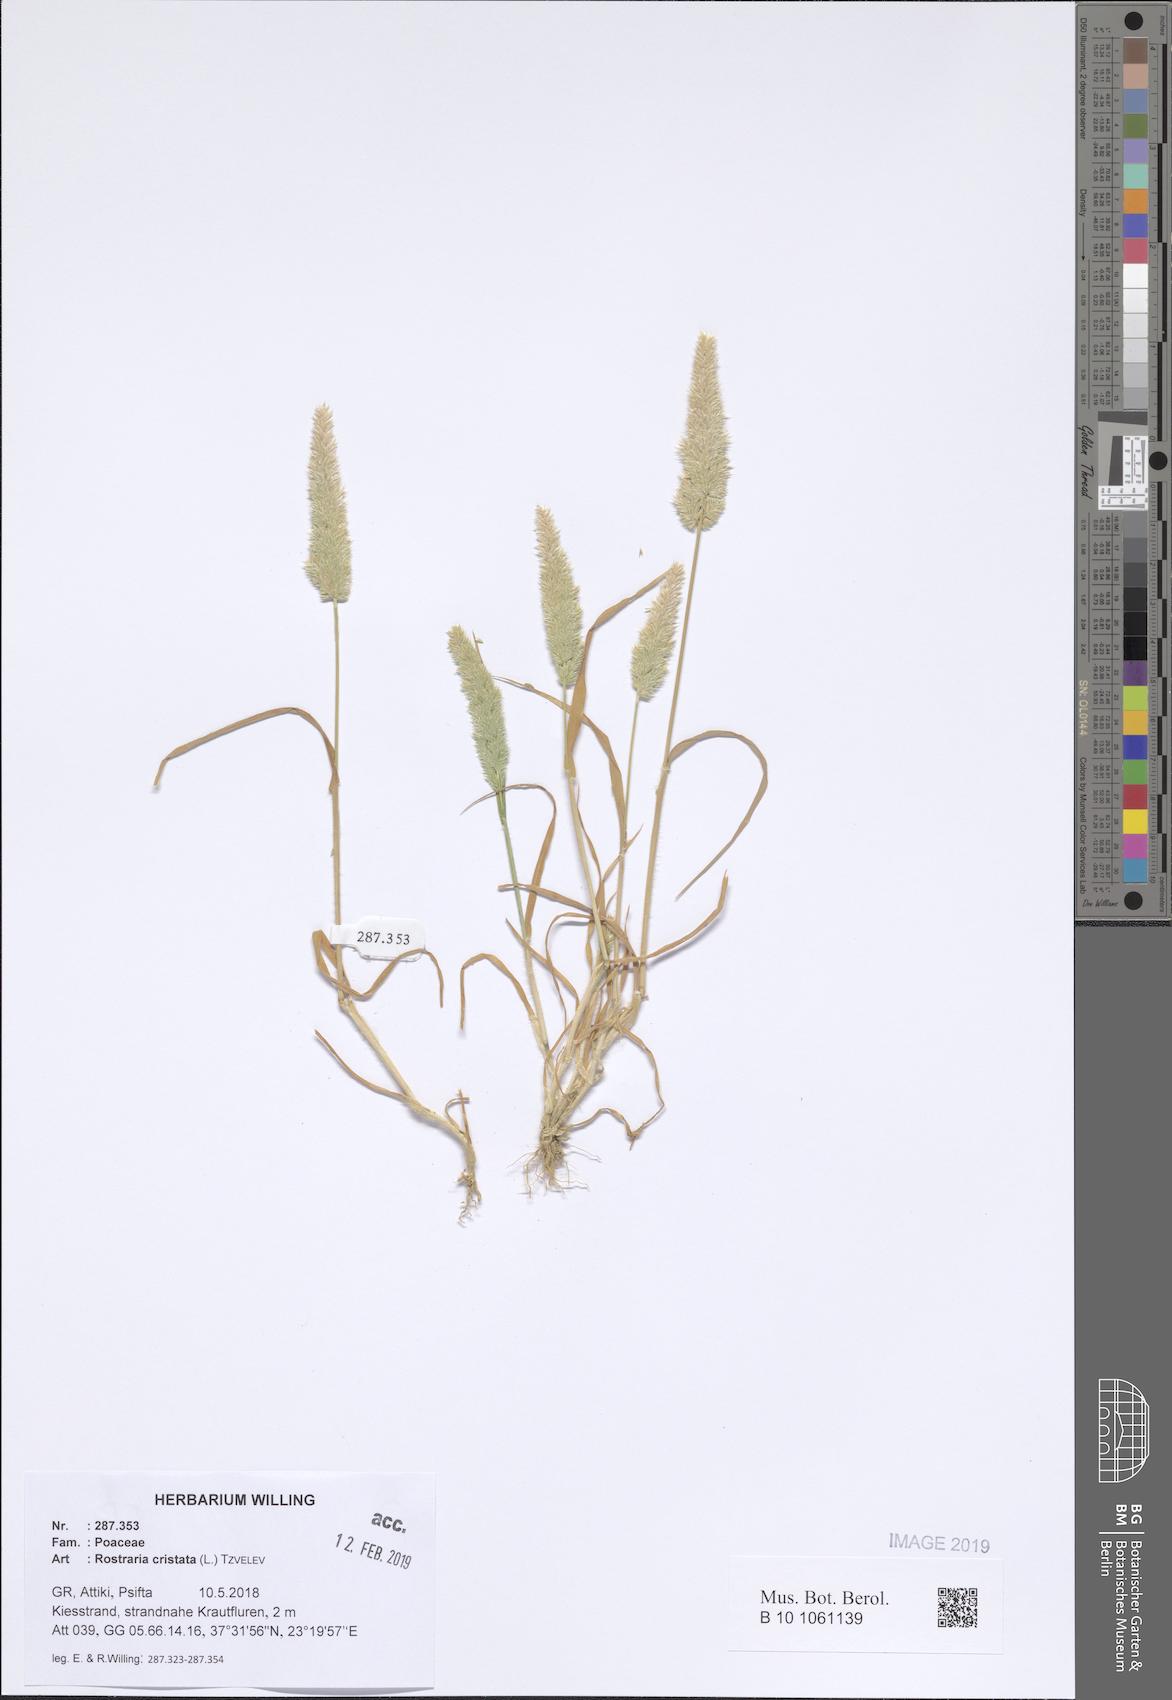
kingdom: Plantae
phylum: Tracheophyta
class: Liliopsida
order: Poales
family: Poaceae
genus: Rostraria
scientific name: Rostraria cristata
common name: Mediterranean hair-grass
